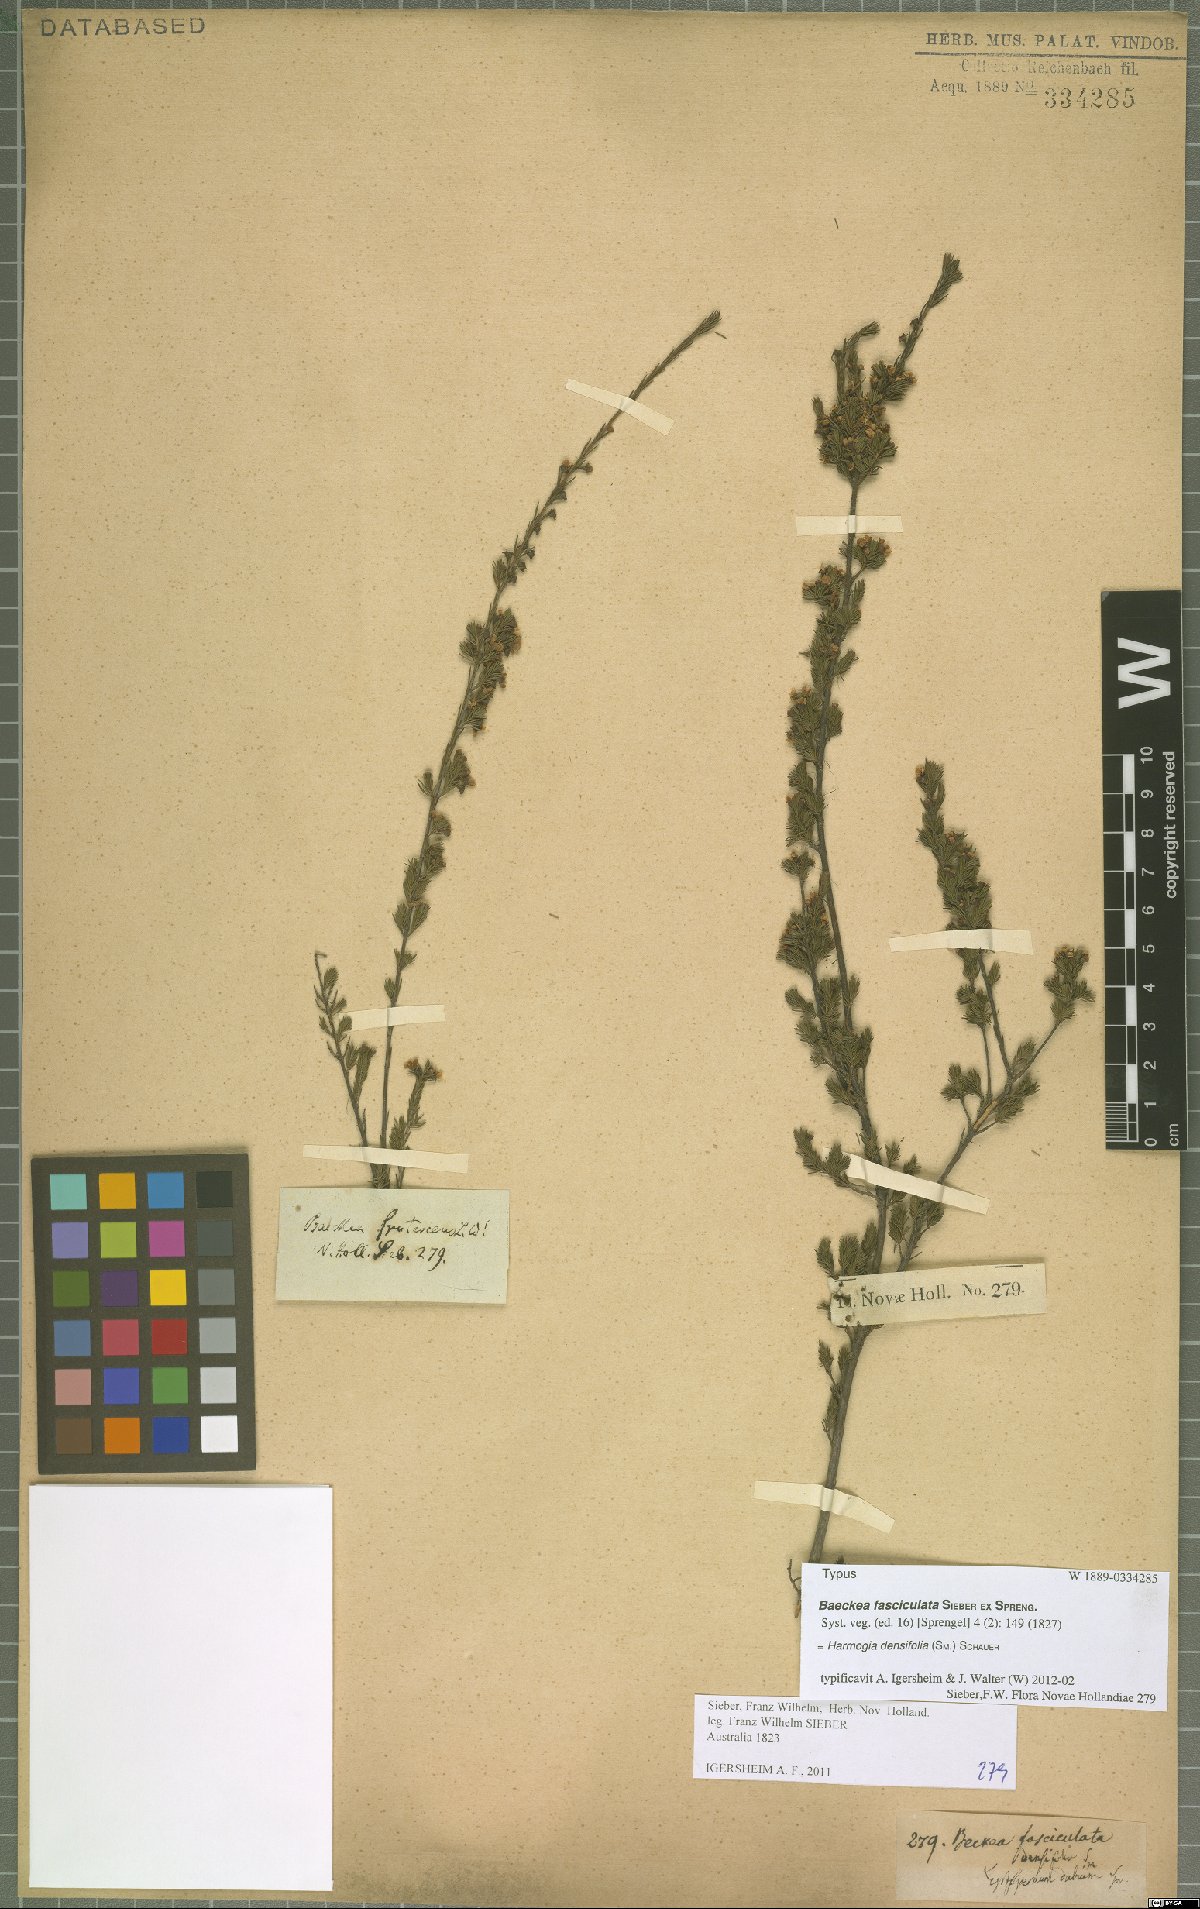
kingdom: Plantae
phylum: Tracheophyta
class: Magnoliopsida
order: Myrtales
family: Myrtaceae
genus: Harmogia
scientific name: Harmogia densifolia
